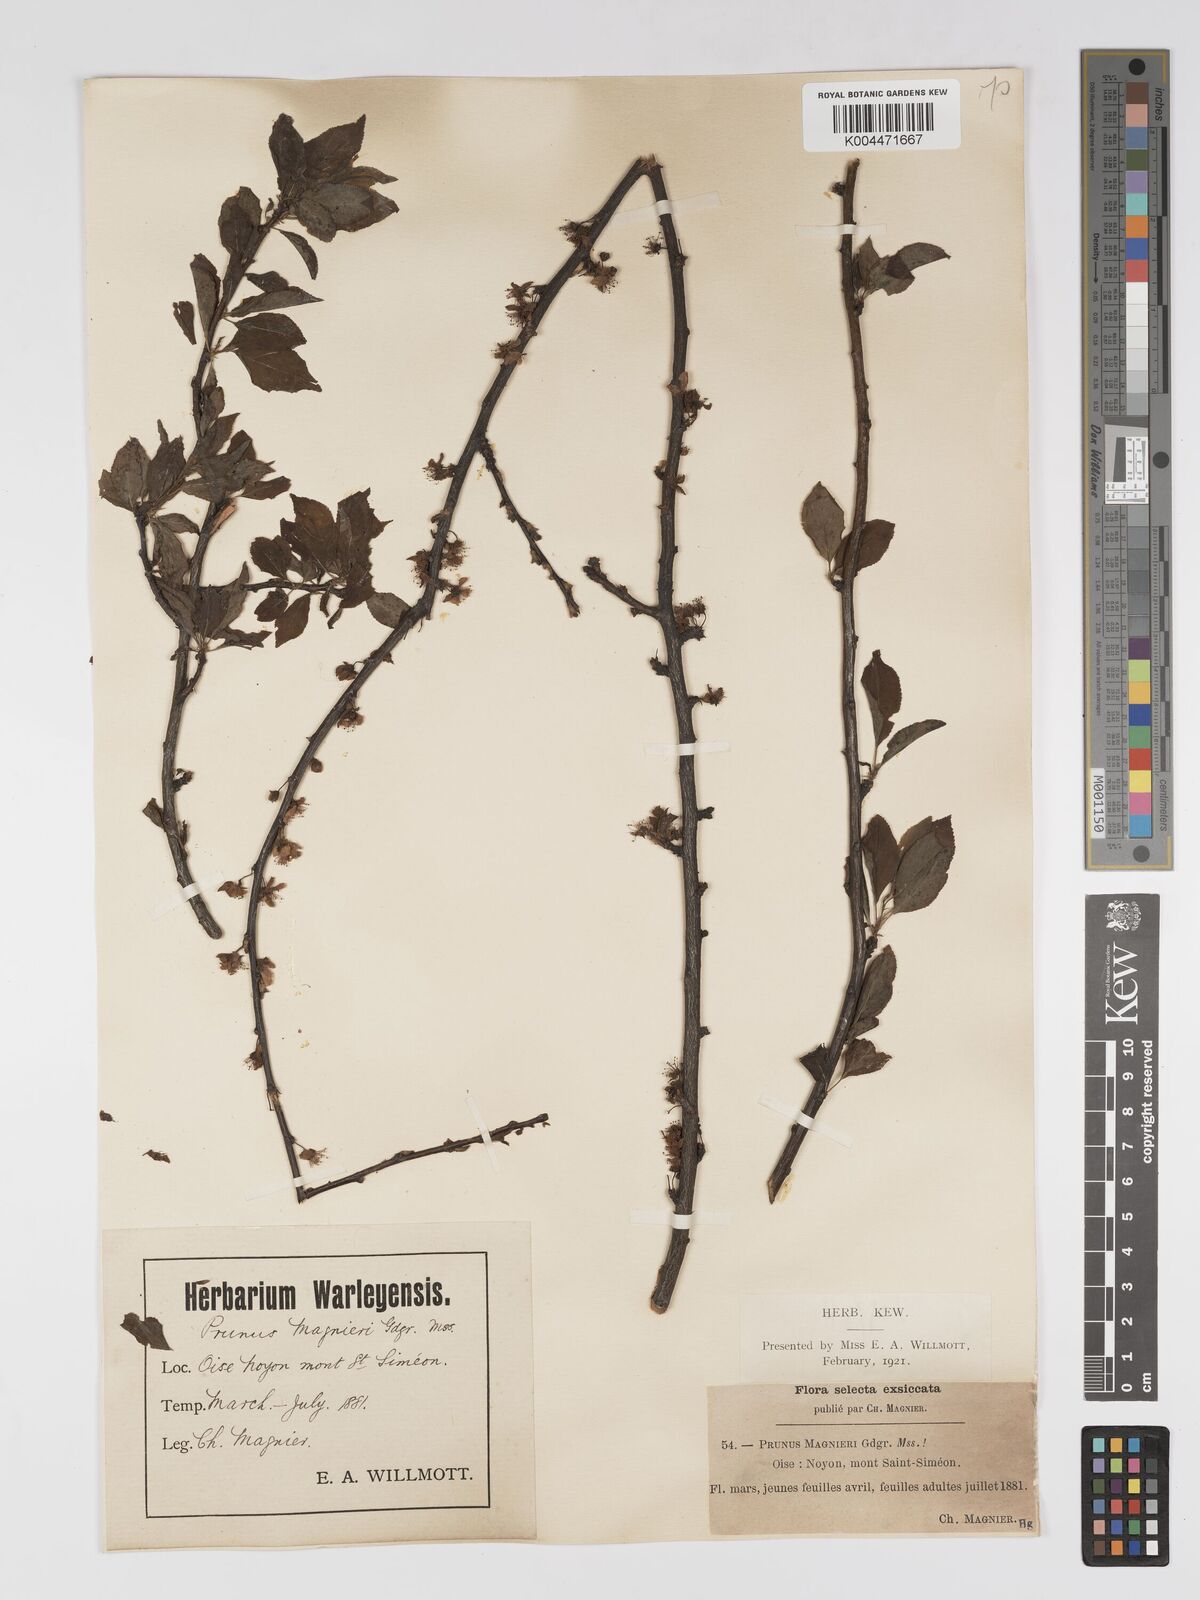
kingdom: Plantae
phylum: Tracheophyta
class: Magnoliopsida
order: Rosales
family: Rosaceae
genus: Prunus
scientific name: Prunus magnieri
